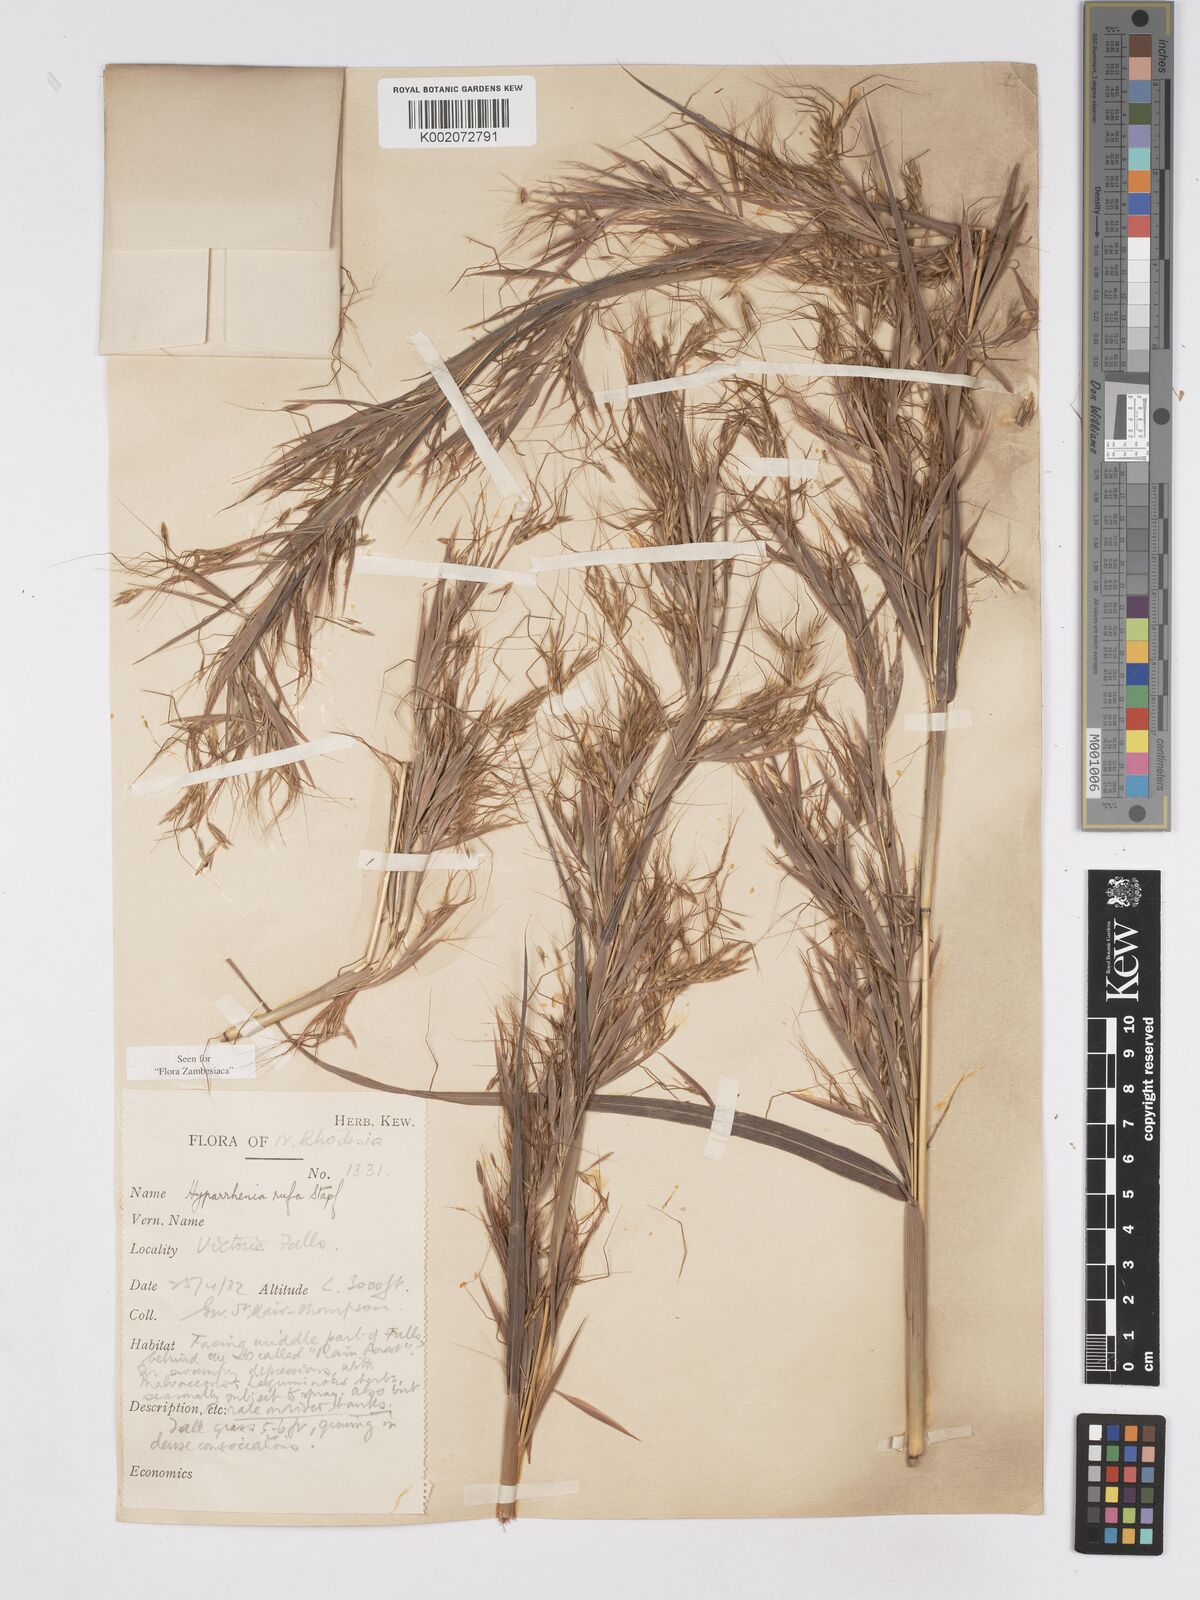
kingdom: Plantae
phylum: Tracheophyta
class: Liliopsida
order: Poales
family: Poaceae
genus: Hyparrhenia
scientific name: Hyparrhenia rufa
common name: Jaraguagrass
